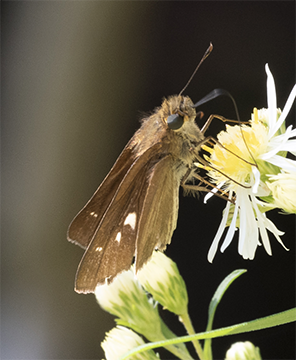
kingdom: Animalia
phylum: Arthropoda
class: Insecta
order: Lepidoptera
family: Hesperiidae
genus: Panoquina
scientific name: Panoquina ocola
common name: Ocola Skipper
